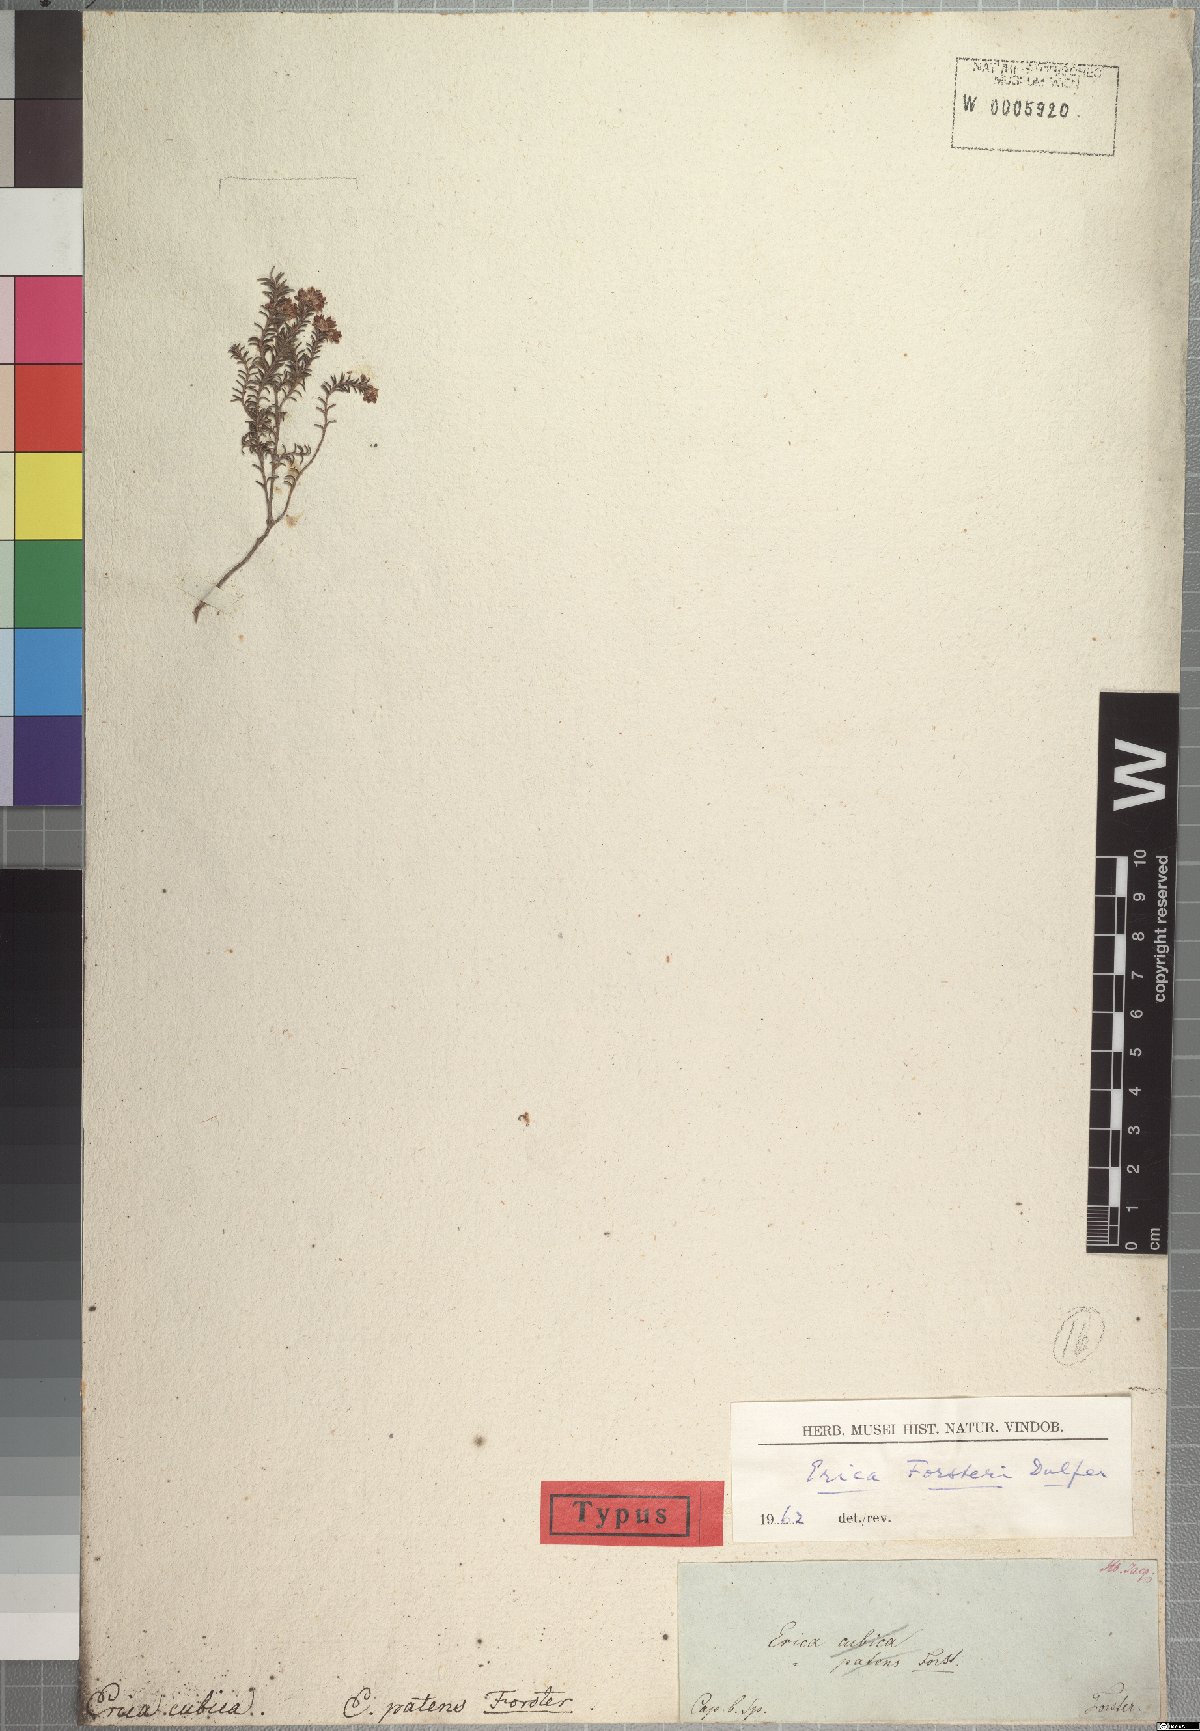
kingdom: Plantae
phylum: Tracheophyta
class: Magnoliopsida
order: Ericales
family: Ericaceae
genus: Erica
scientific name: Erica forsteri
